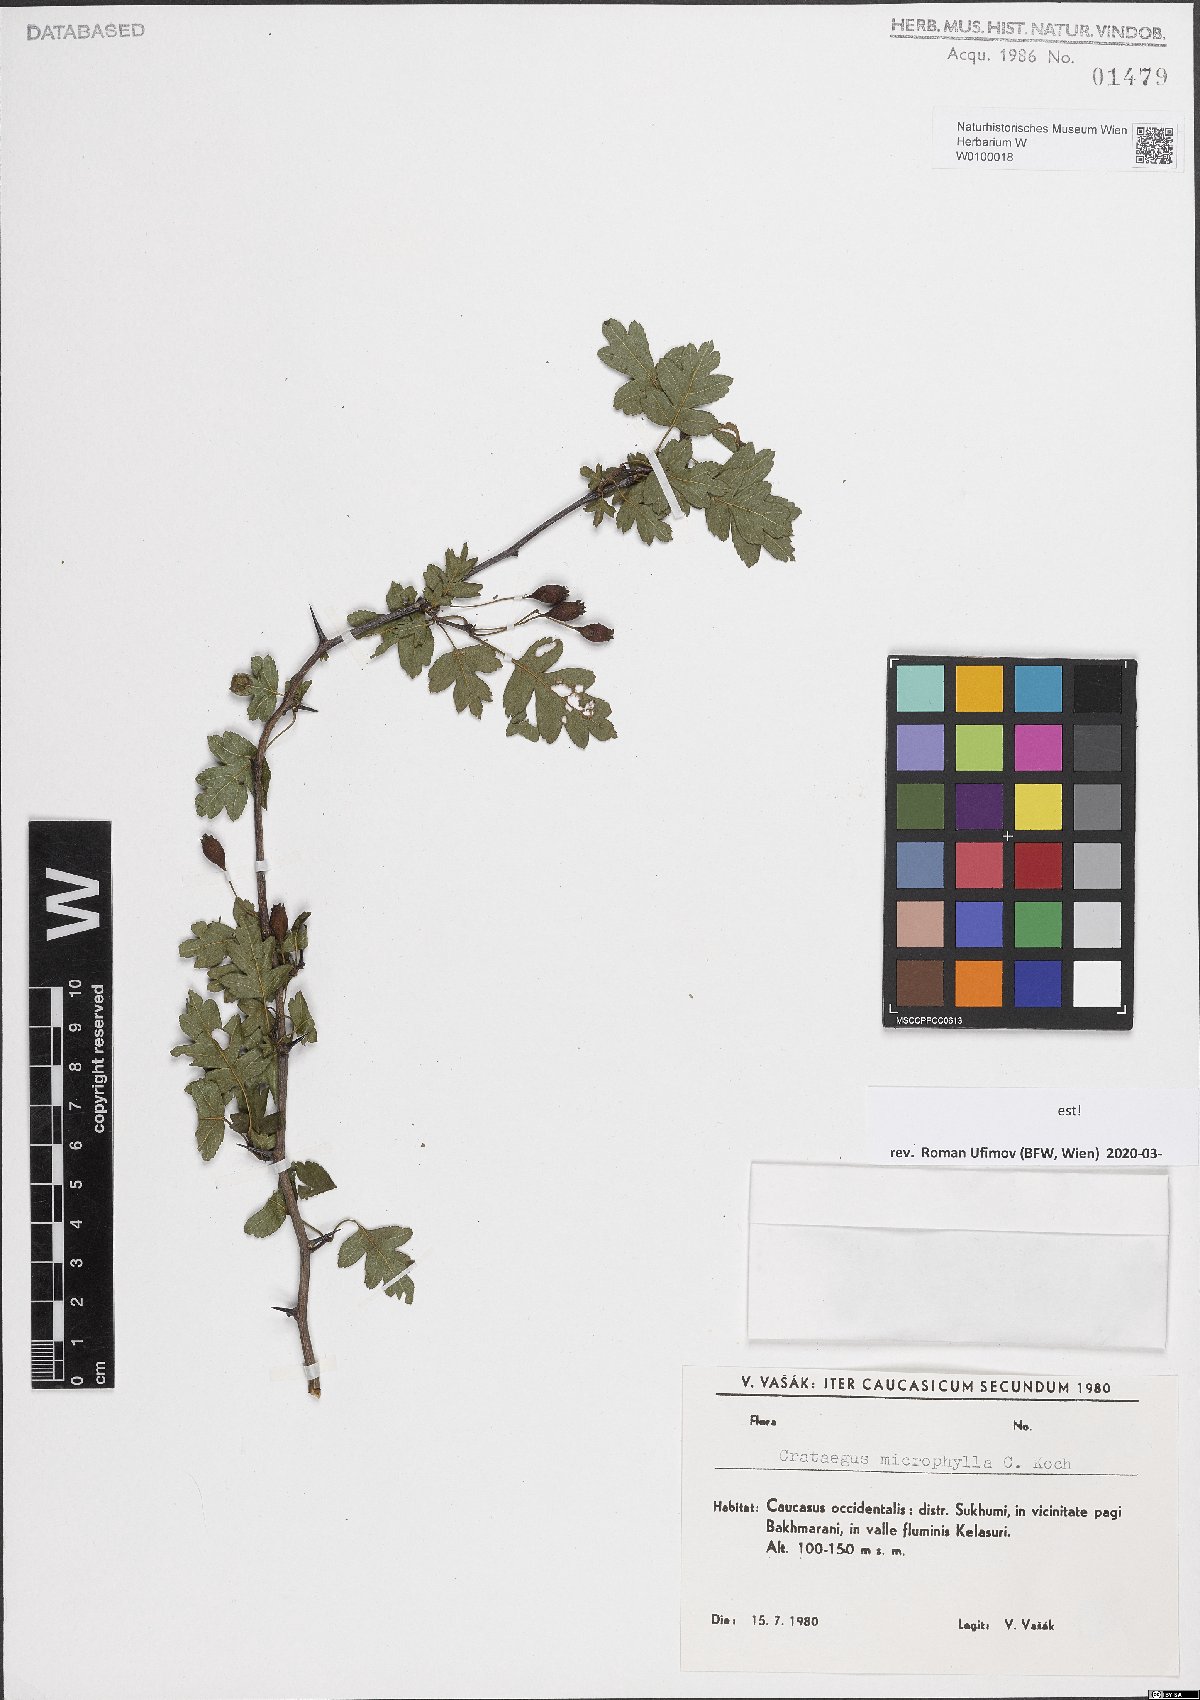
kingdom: Plantae
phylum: Tracheophyta
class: Magnoliopsida
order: Rosales
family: Rosaceae
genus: Crataegus
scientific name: Crataegus microphylla
